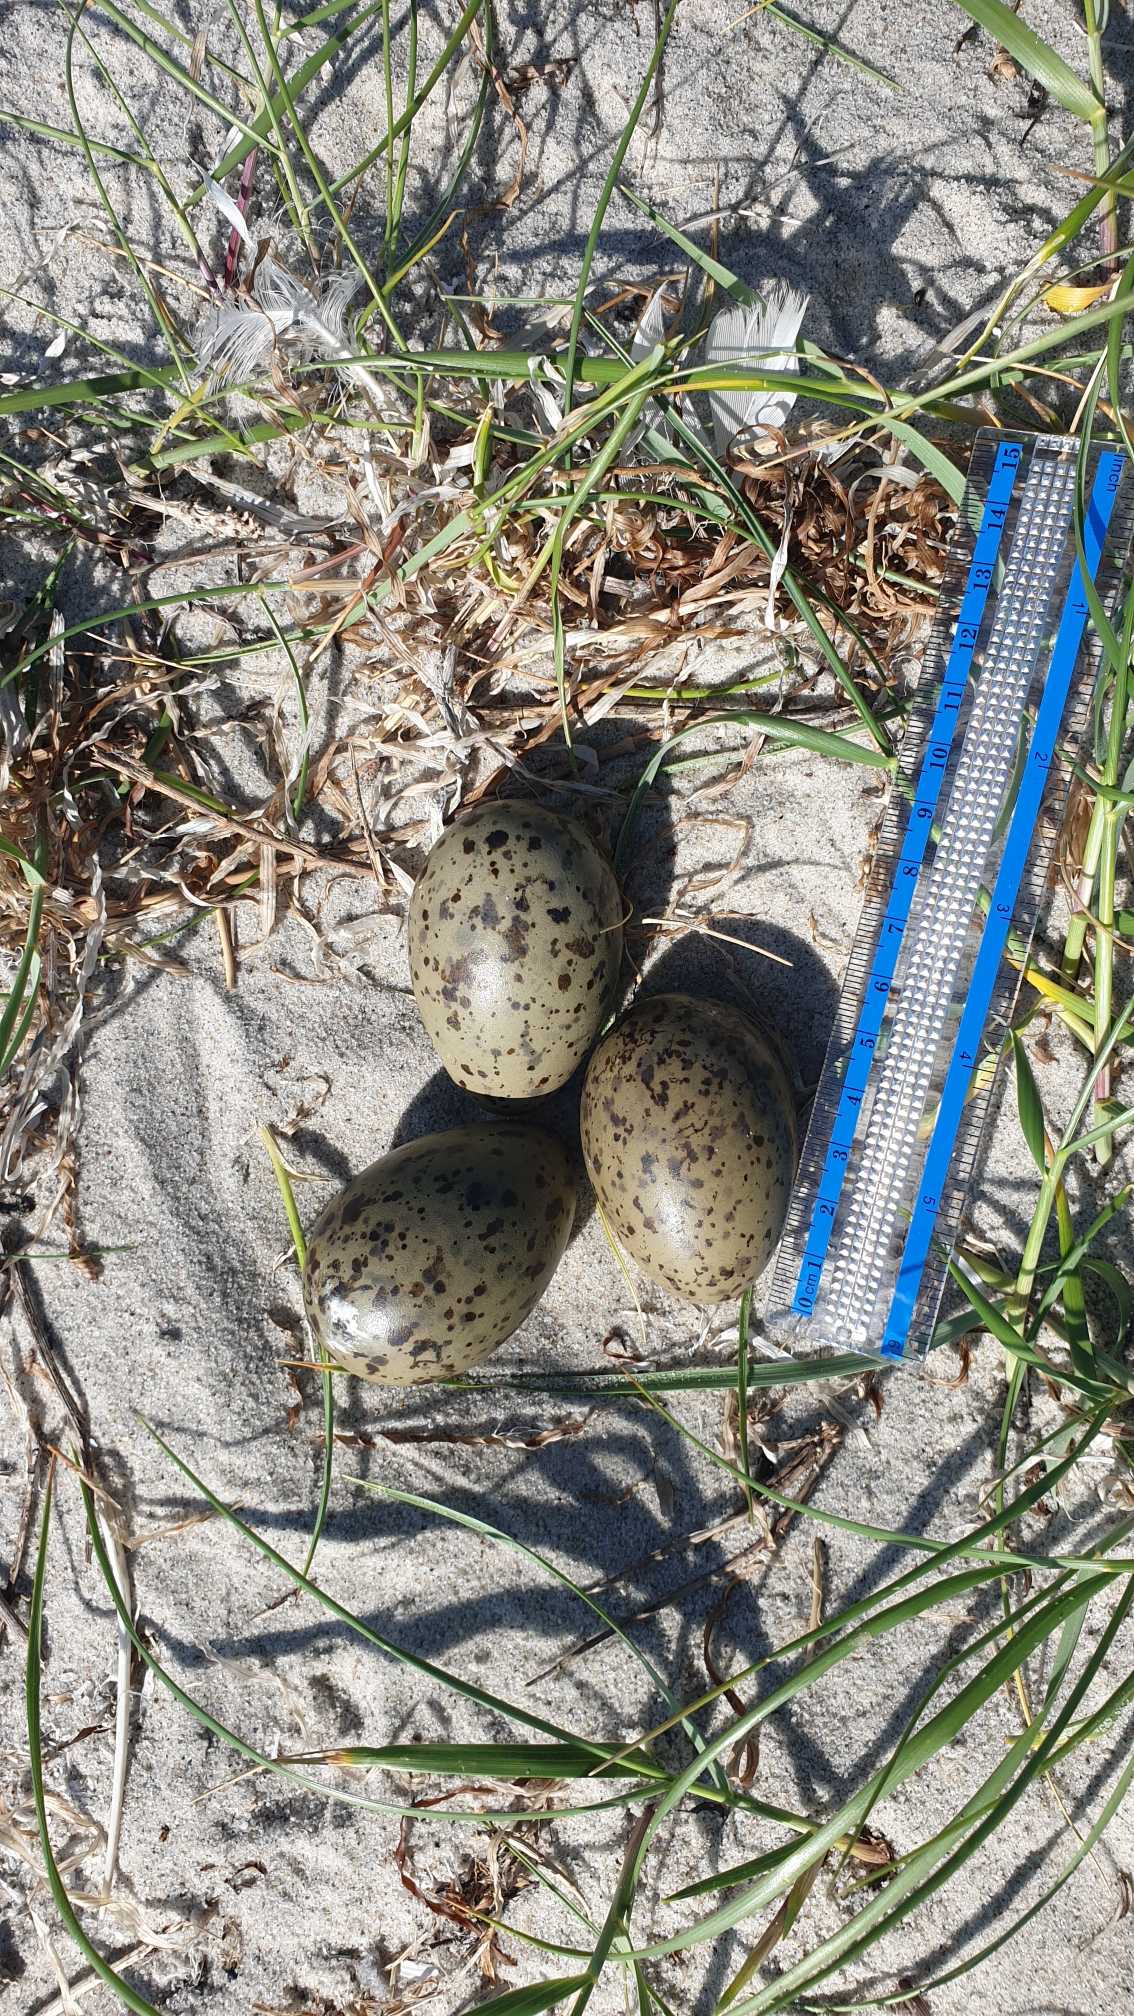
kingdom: Animalia
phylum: Chordata
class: Aves
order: Charadriiformes
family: Haematopodidae
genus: Haematopus
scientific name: Haematopus ostralegus
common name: Strandskade
